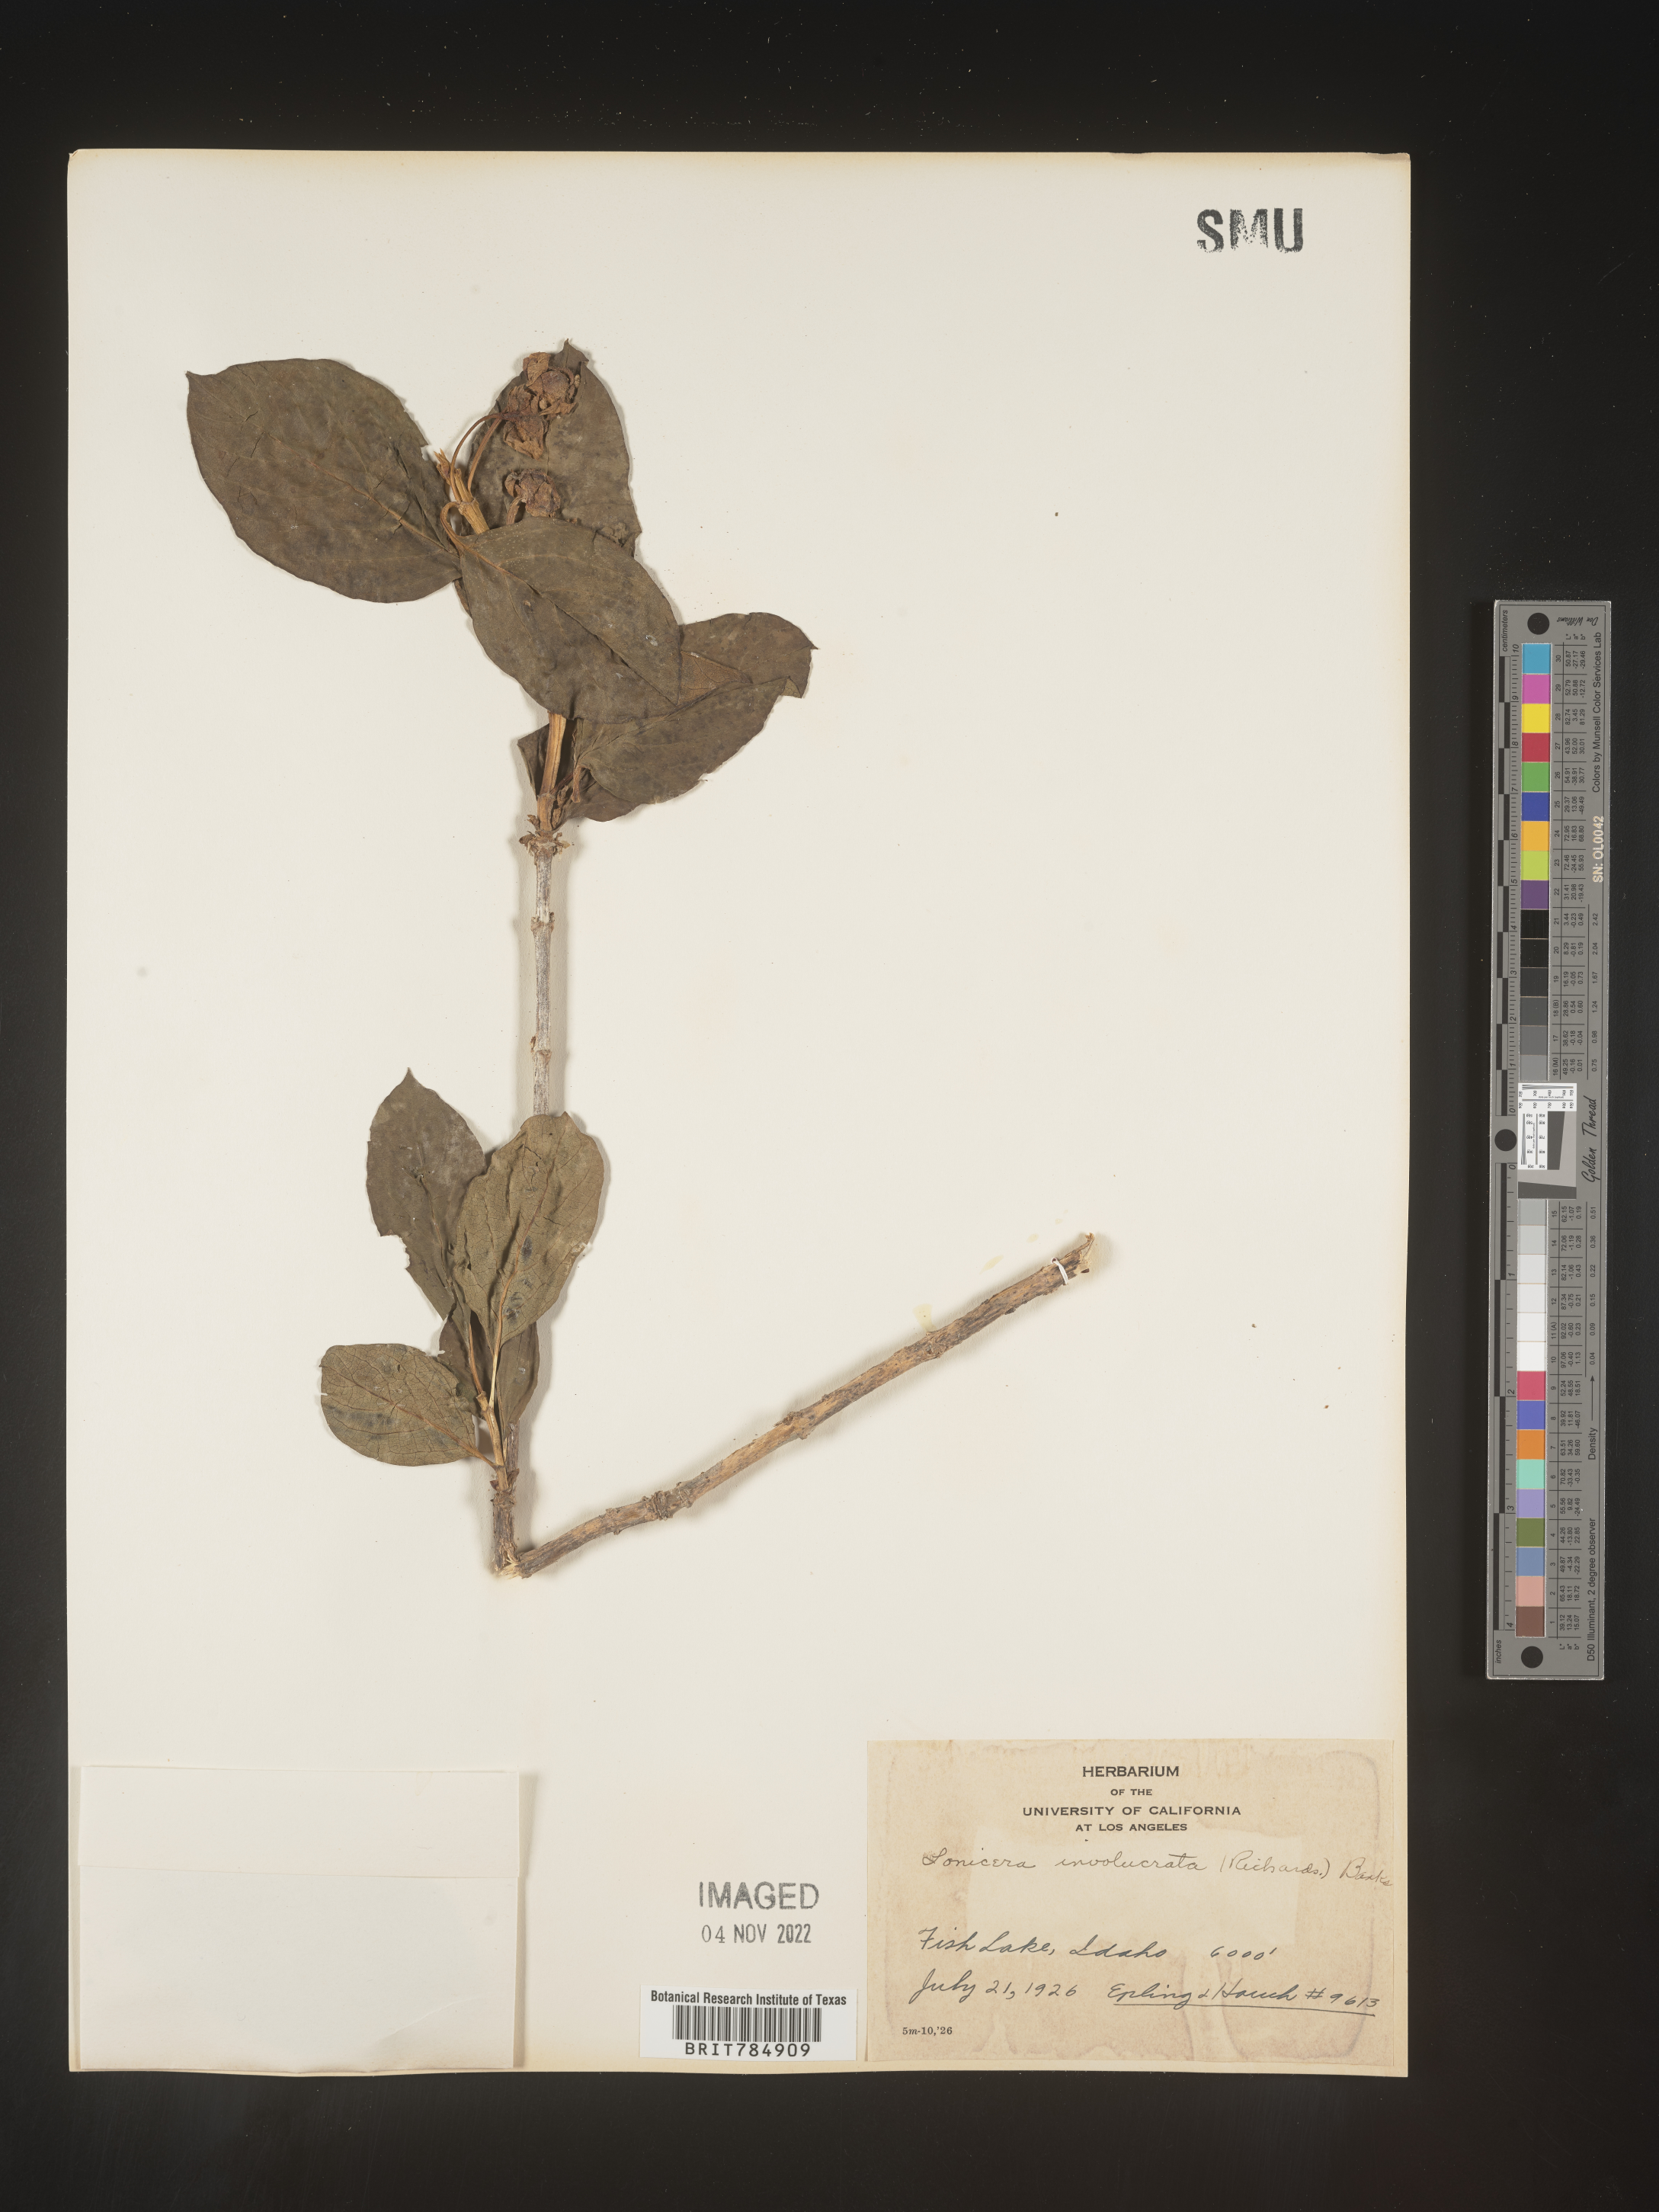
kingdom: Plantae
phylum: Tracheophyta
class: Magnoliopsida
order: Dipsacales
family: Caprifoliaceae
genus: Lonicera
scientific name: Lonicera involucrata
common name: Californian honeysuckle
